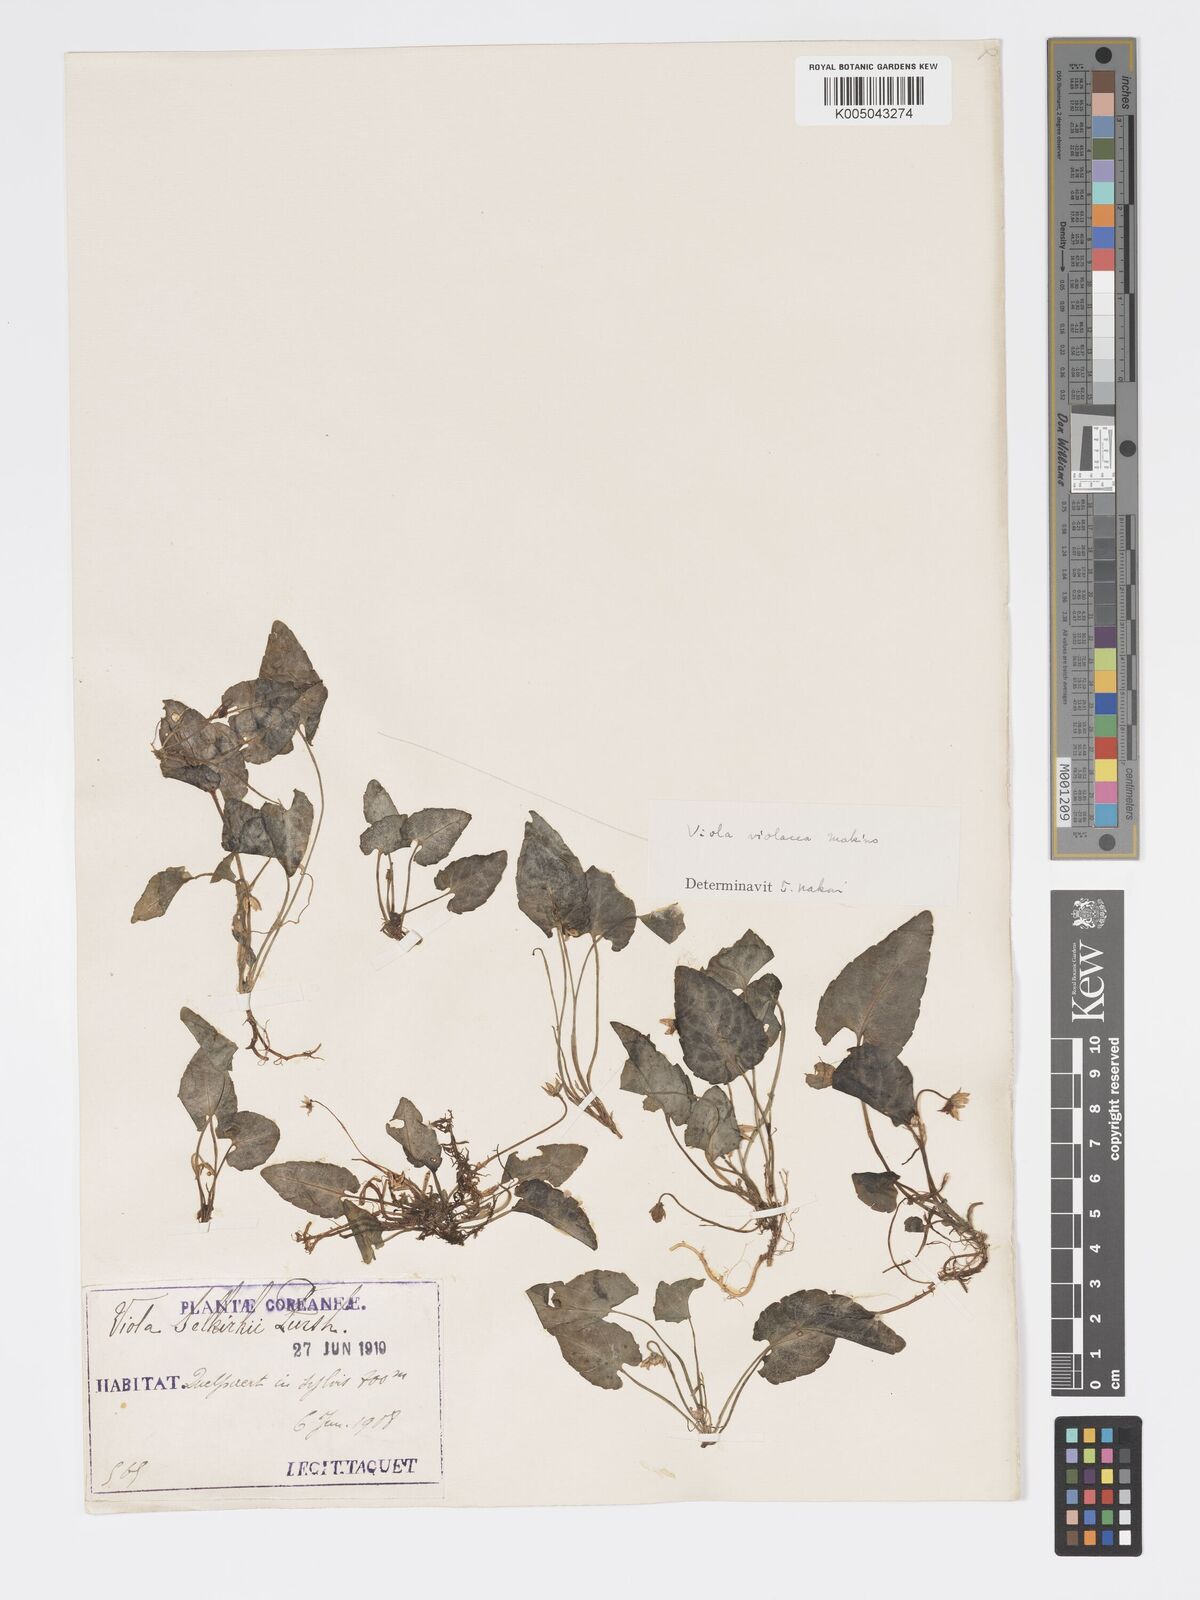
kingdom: Plantae
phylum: Tracheophyta
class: Magnoliopsida
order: Malpighiales
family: Violaceae
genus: Viola
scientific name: Viola violacea
